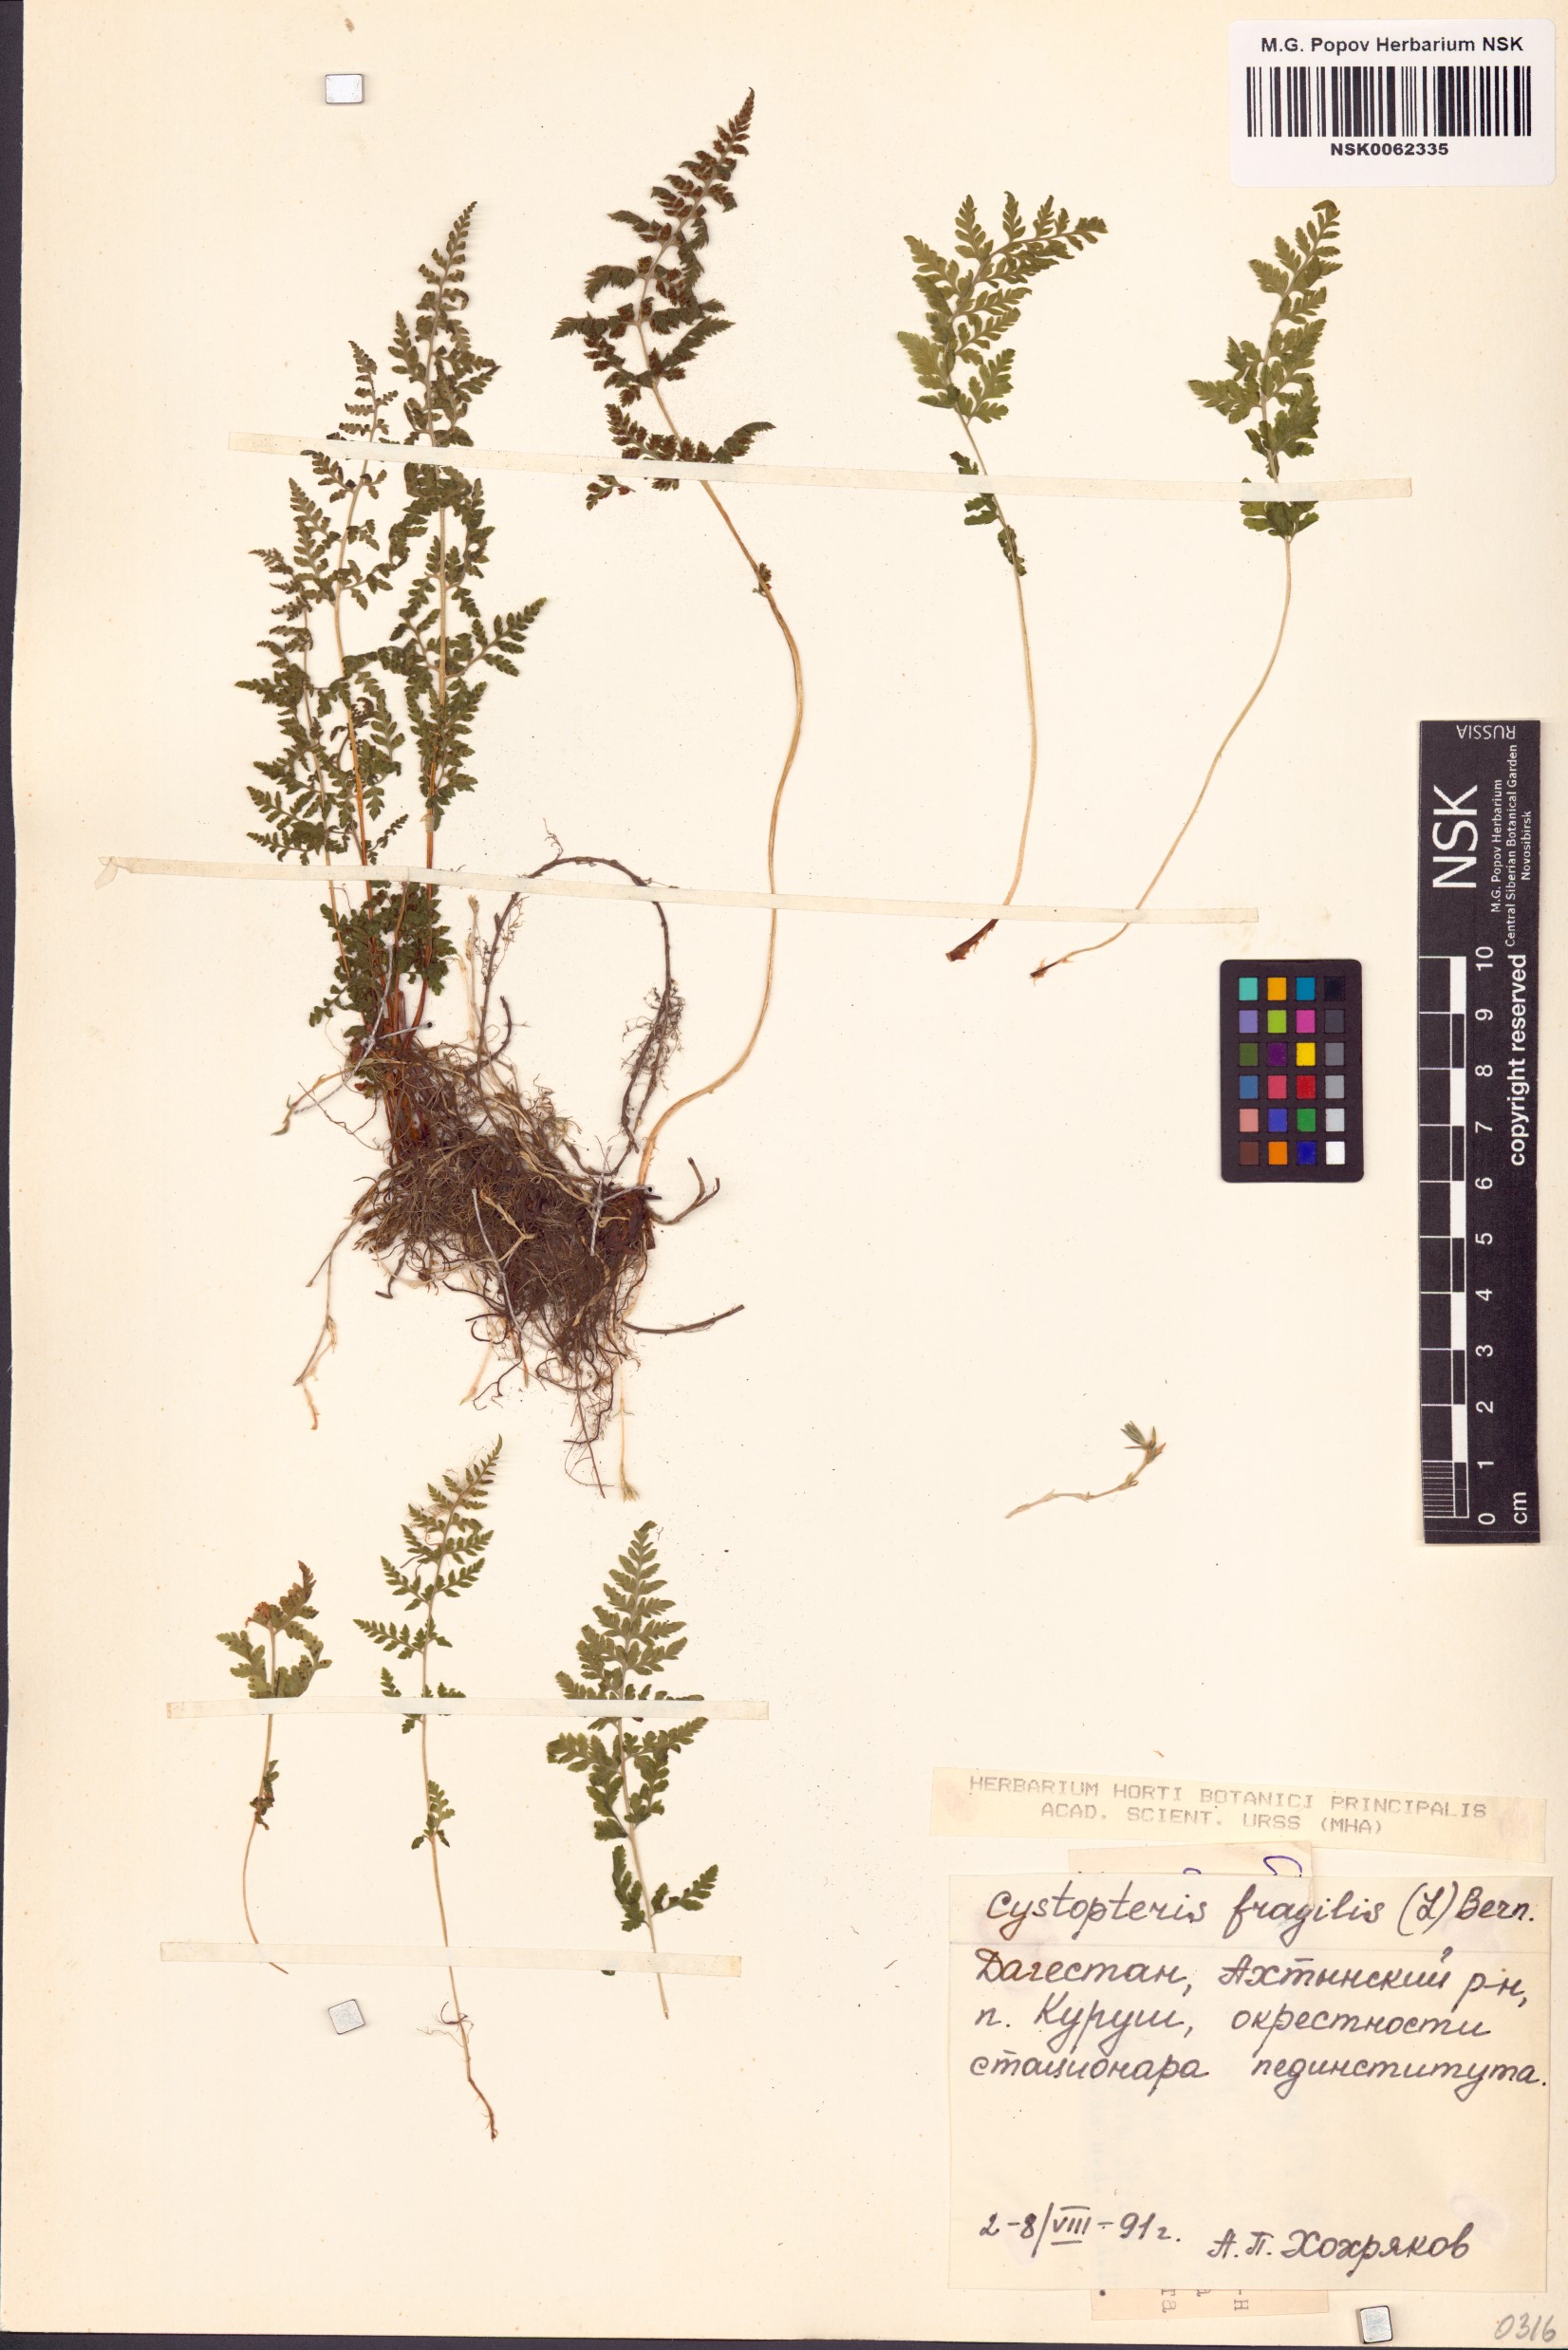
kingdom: Plantae
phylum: Tracheophyta
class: Polypodiopsida
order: Polypodiales
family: Cystopteridaceae
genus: Cystopteris
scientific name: Cystopteris fragilis
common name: Brittle bladder fern
